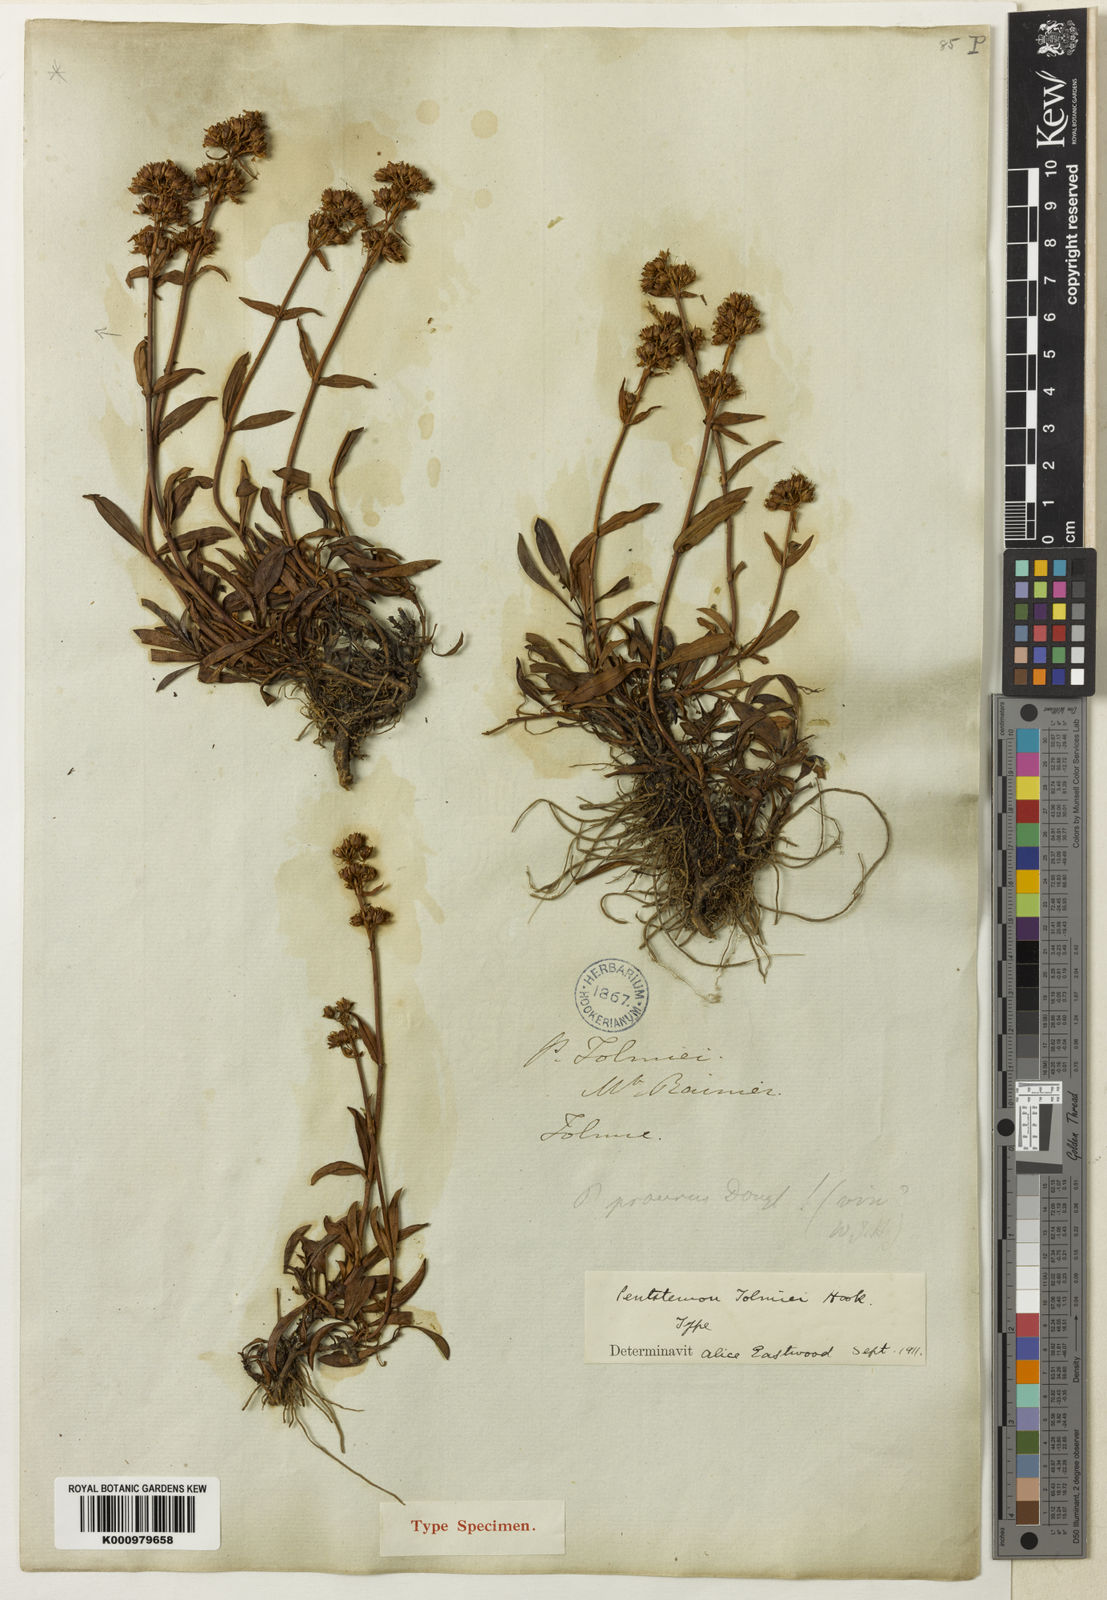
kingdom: Plantae
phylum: Tracheophyta
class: Magnoliopsida
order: Lamiales
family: Plantaginaceae
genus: Penstemon
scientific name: Penstemon procerus
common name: Small-flower penstemon
